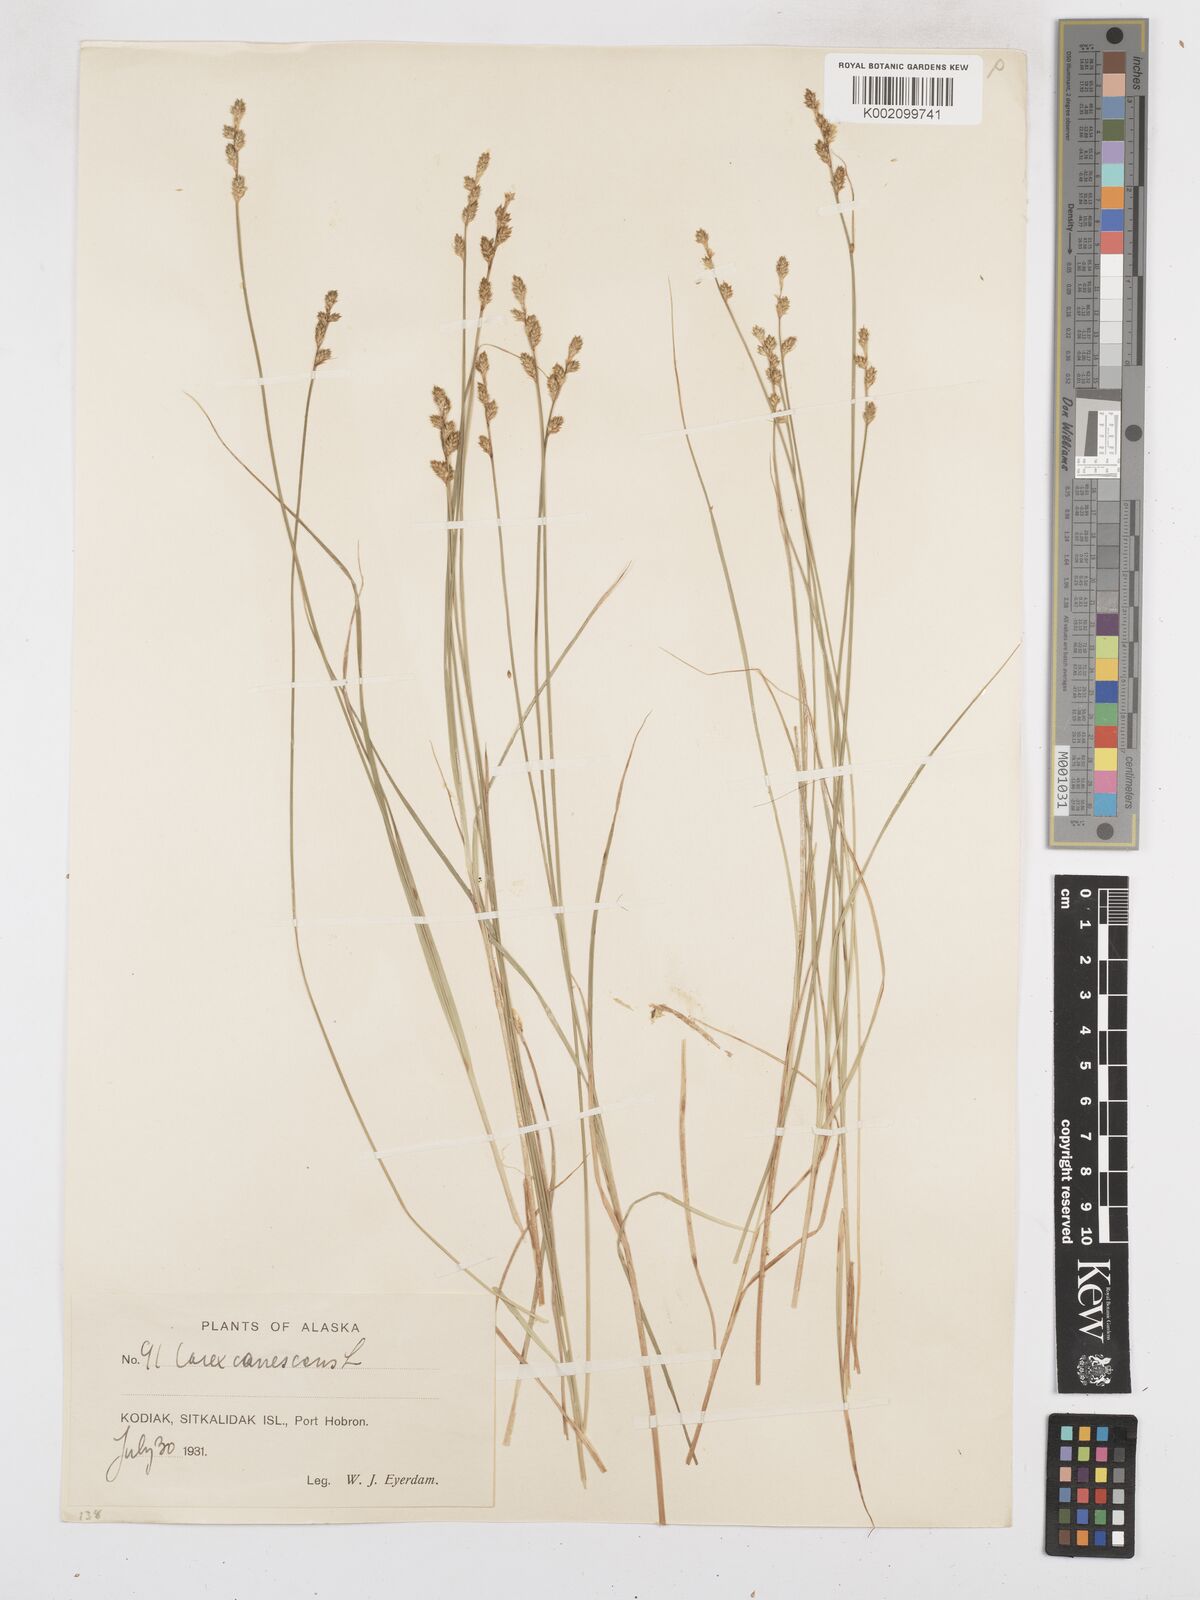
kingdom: Plantae
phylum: Tracheophyta
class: Liliopsida
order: Poales
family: Cyperaceae
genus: Carex
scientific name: Carex curta
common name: White sedge
